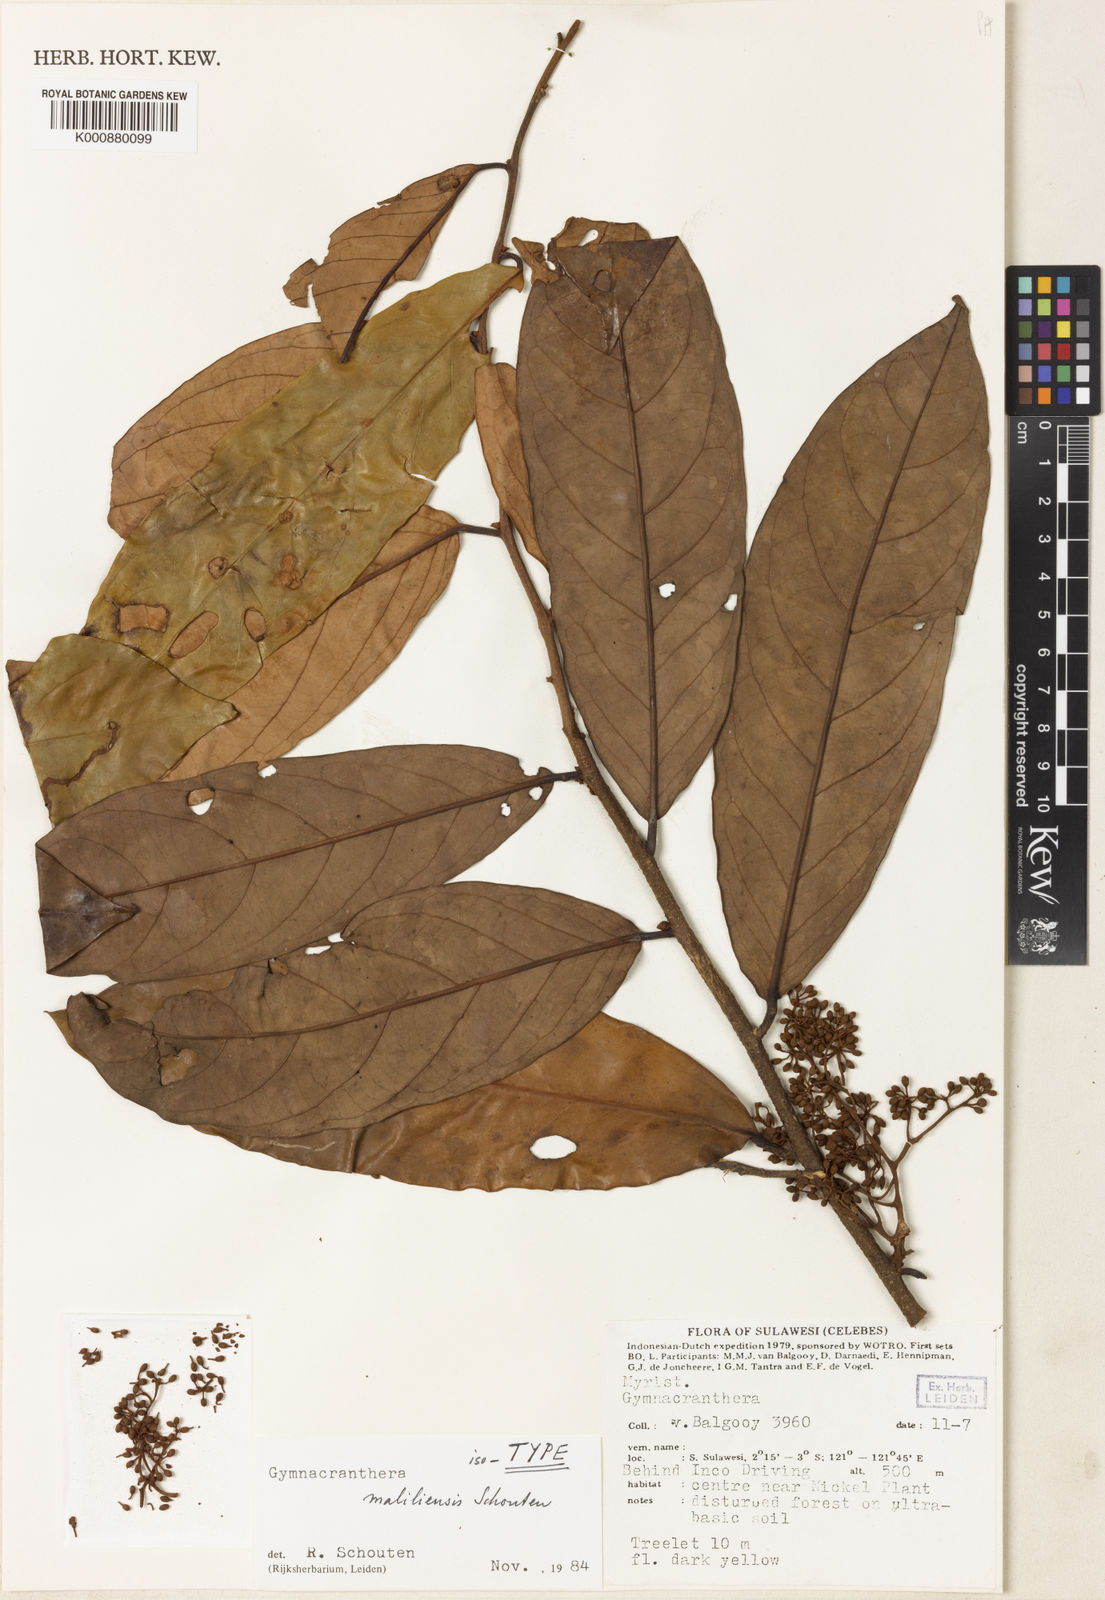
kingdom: Plantae
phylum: Tracheophyta
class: Magnoliopsida
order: Magnoliales
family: Myristicaceae
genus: Gymnacranthera
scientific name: Gymnacranthera maliliensis
